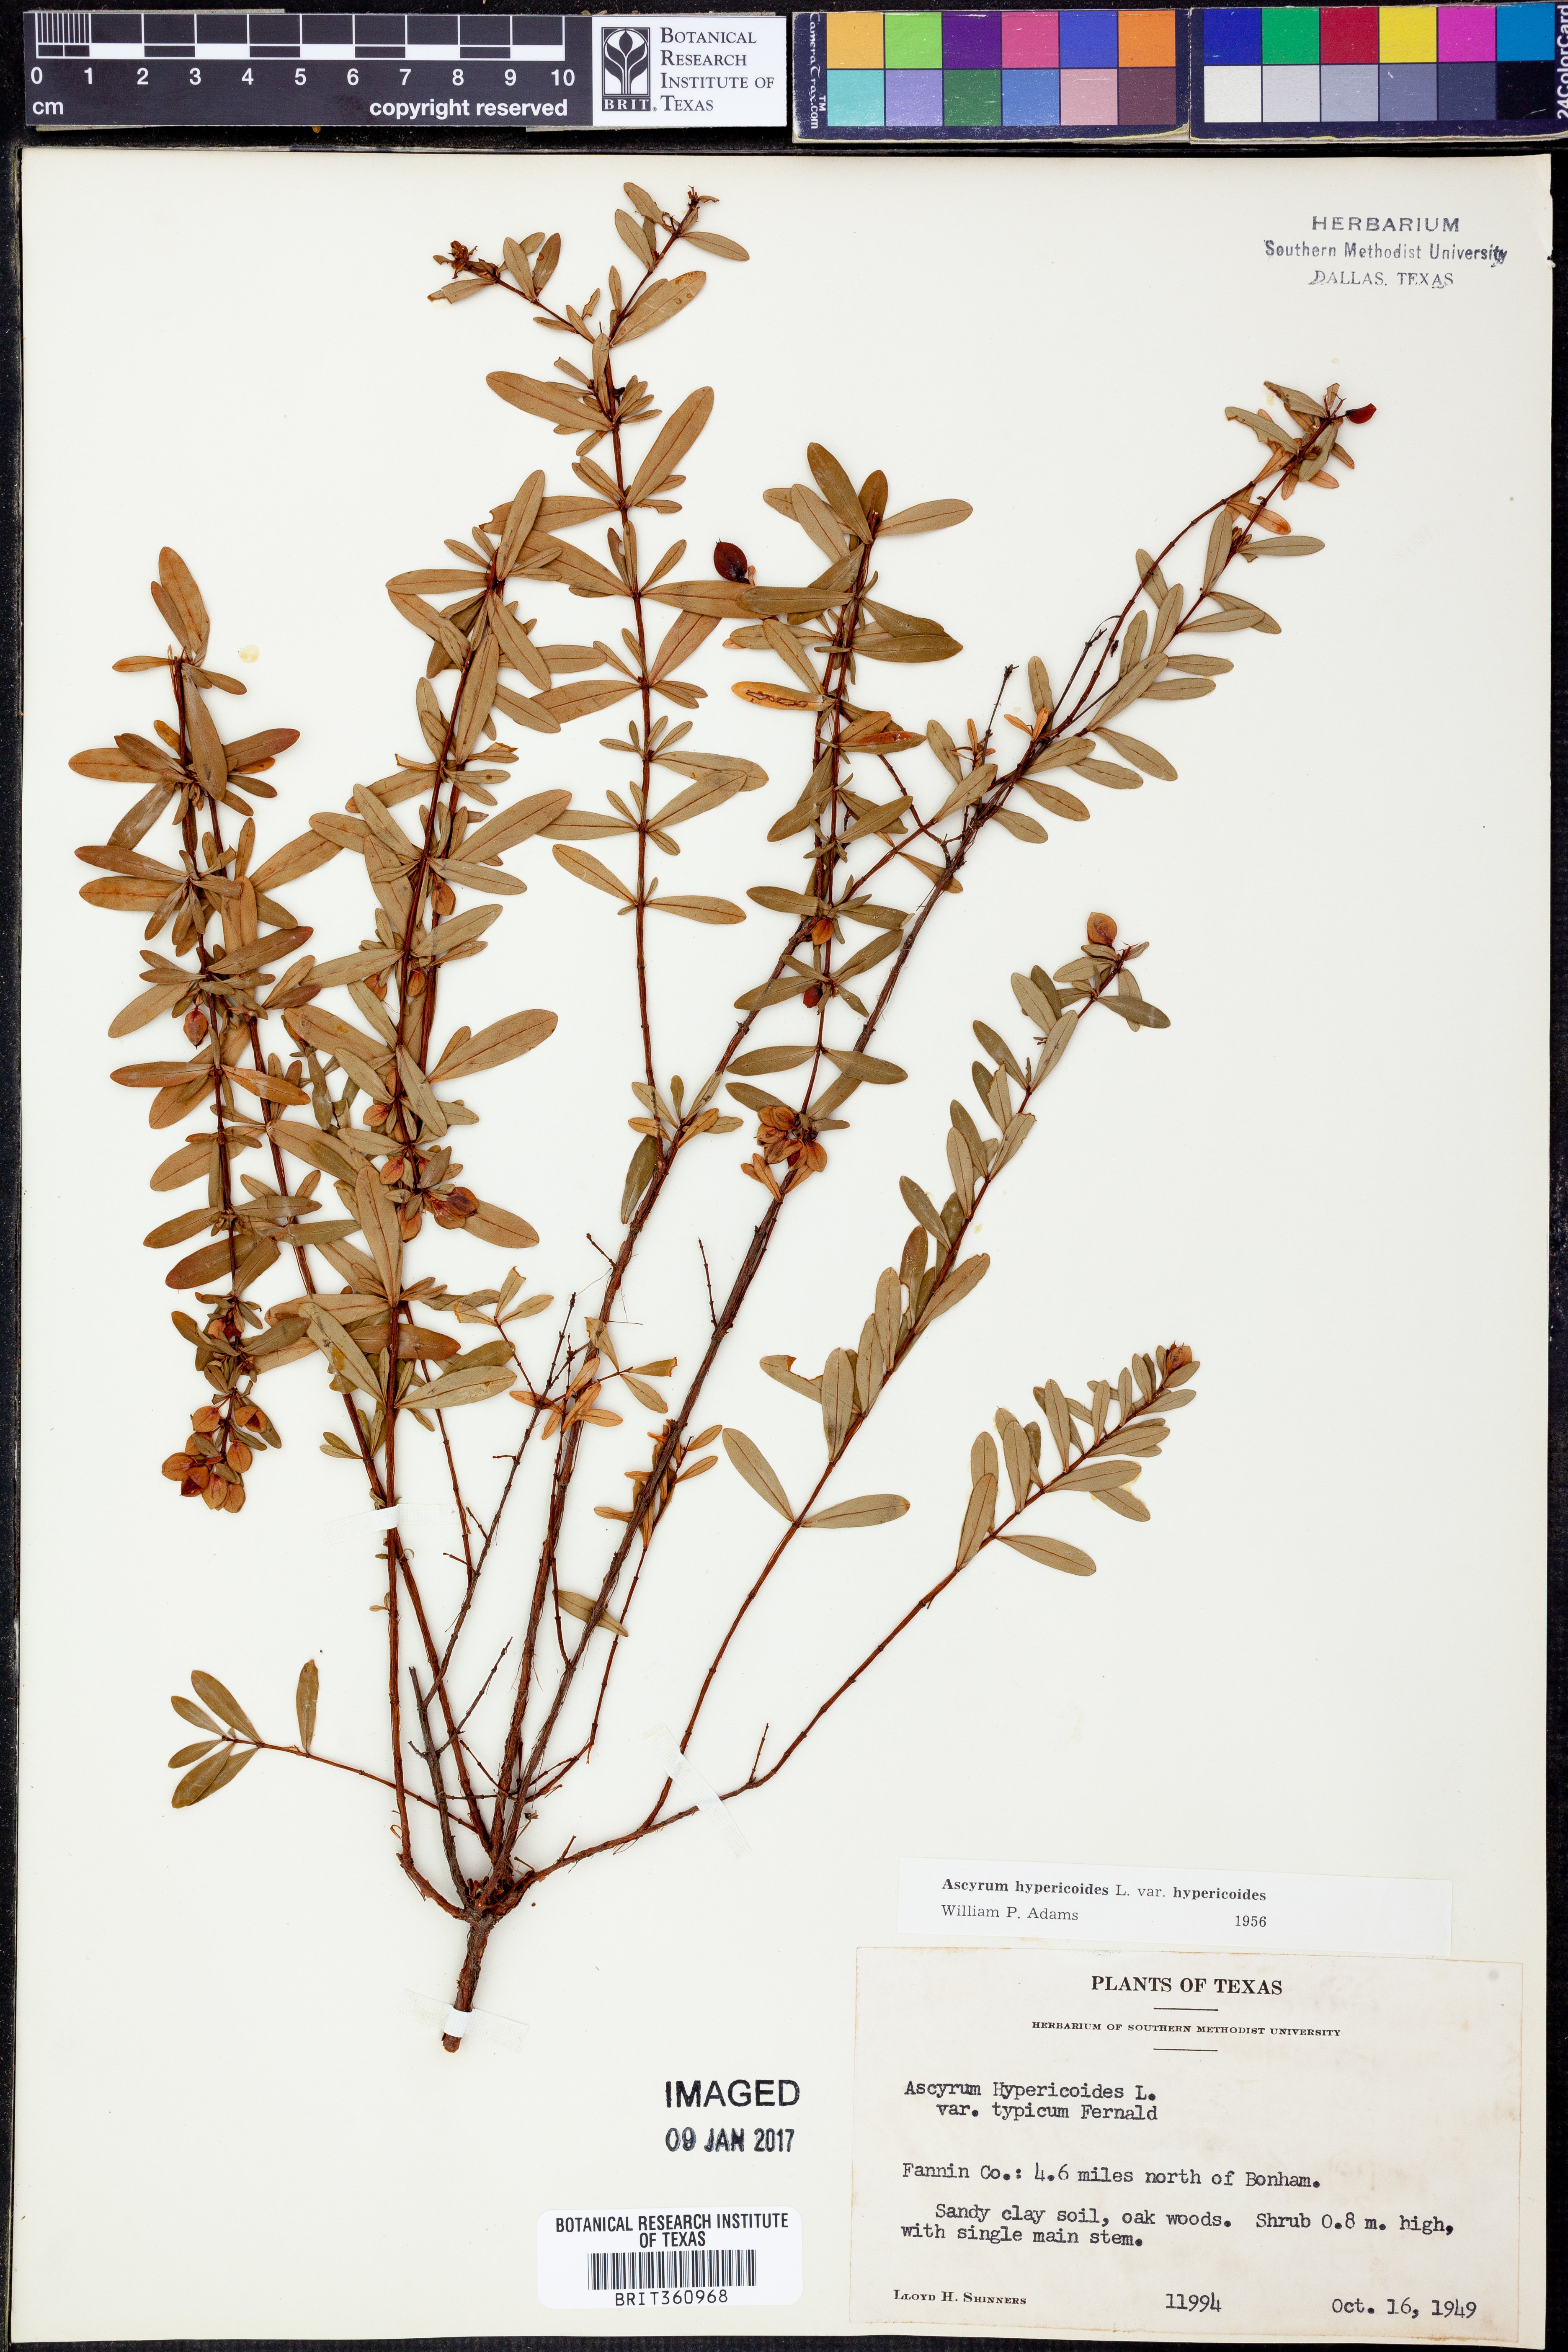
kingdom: Plantae
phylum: Tracheophyta
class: Magnoliopsida
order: Malpighiales
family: Hypericaceae
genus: Hypericum
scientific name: Hypericum hypericoides
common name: St. andrew's cross
